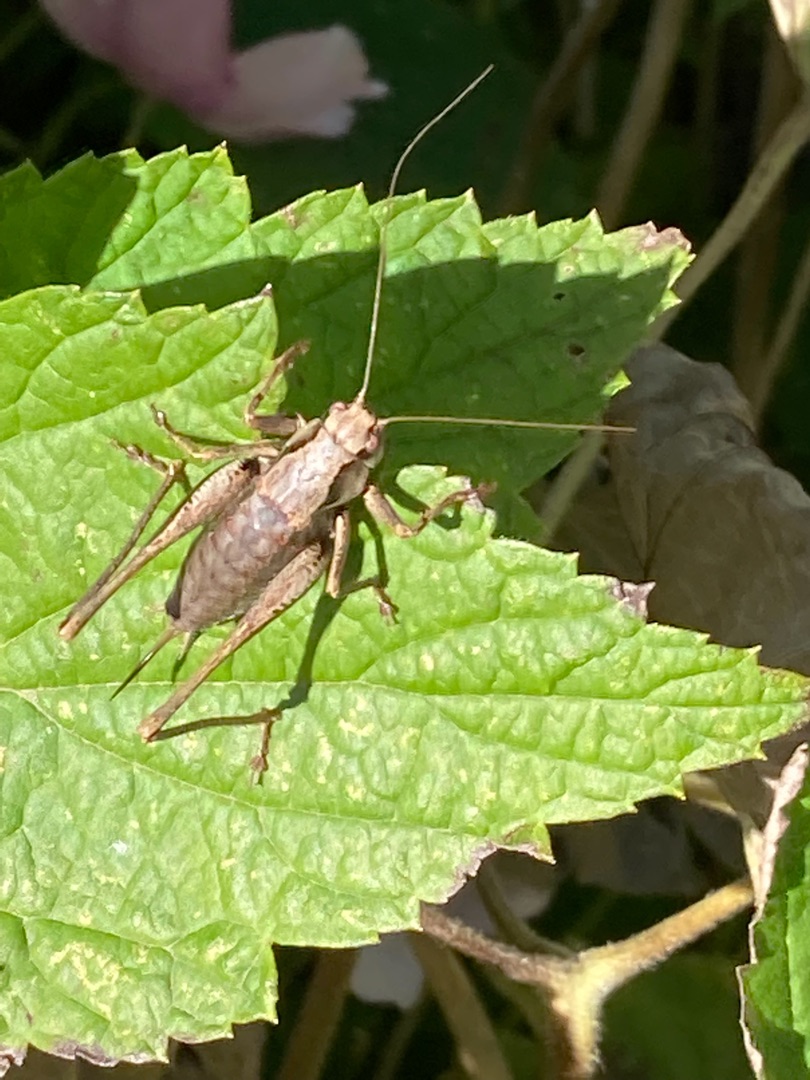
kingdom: Animalia
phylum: Arthropoda
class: Insecta
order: Orthoptera
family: Tettigoniidae
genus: Pholidoptera
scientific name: Pholidoptera griseoaptera
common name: Buskgræshoppe
